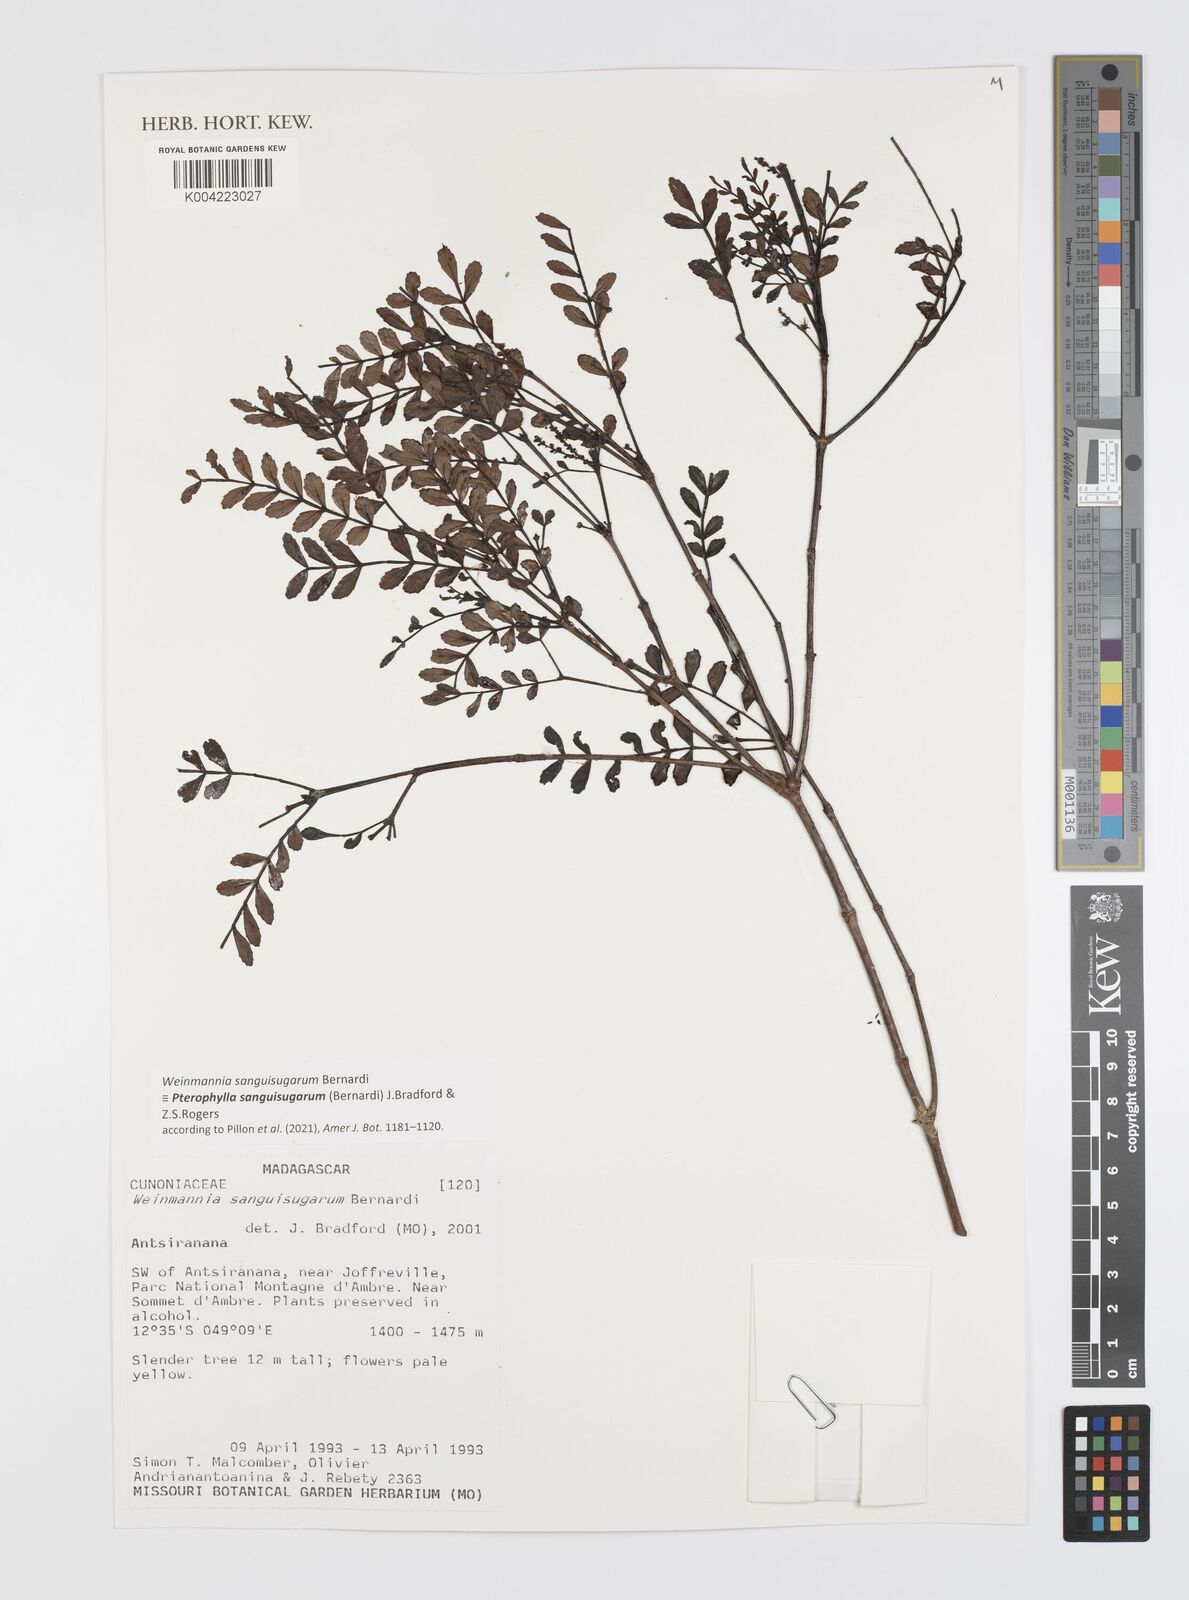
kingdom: Plantae
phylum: Tracheophyta
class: Magnoliopsida
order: Oxalidales
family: Cunoniaceae
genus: Pterophylla
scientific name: Pterophylla sanguisugarum
